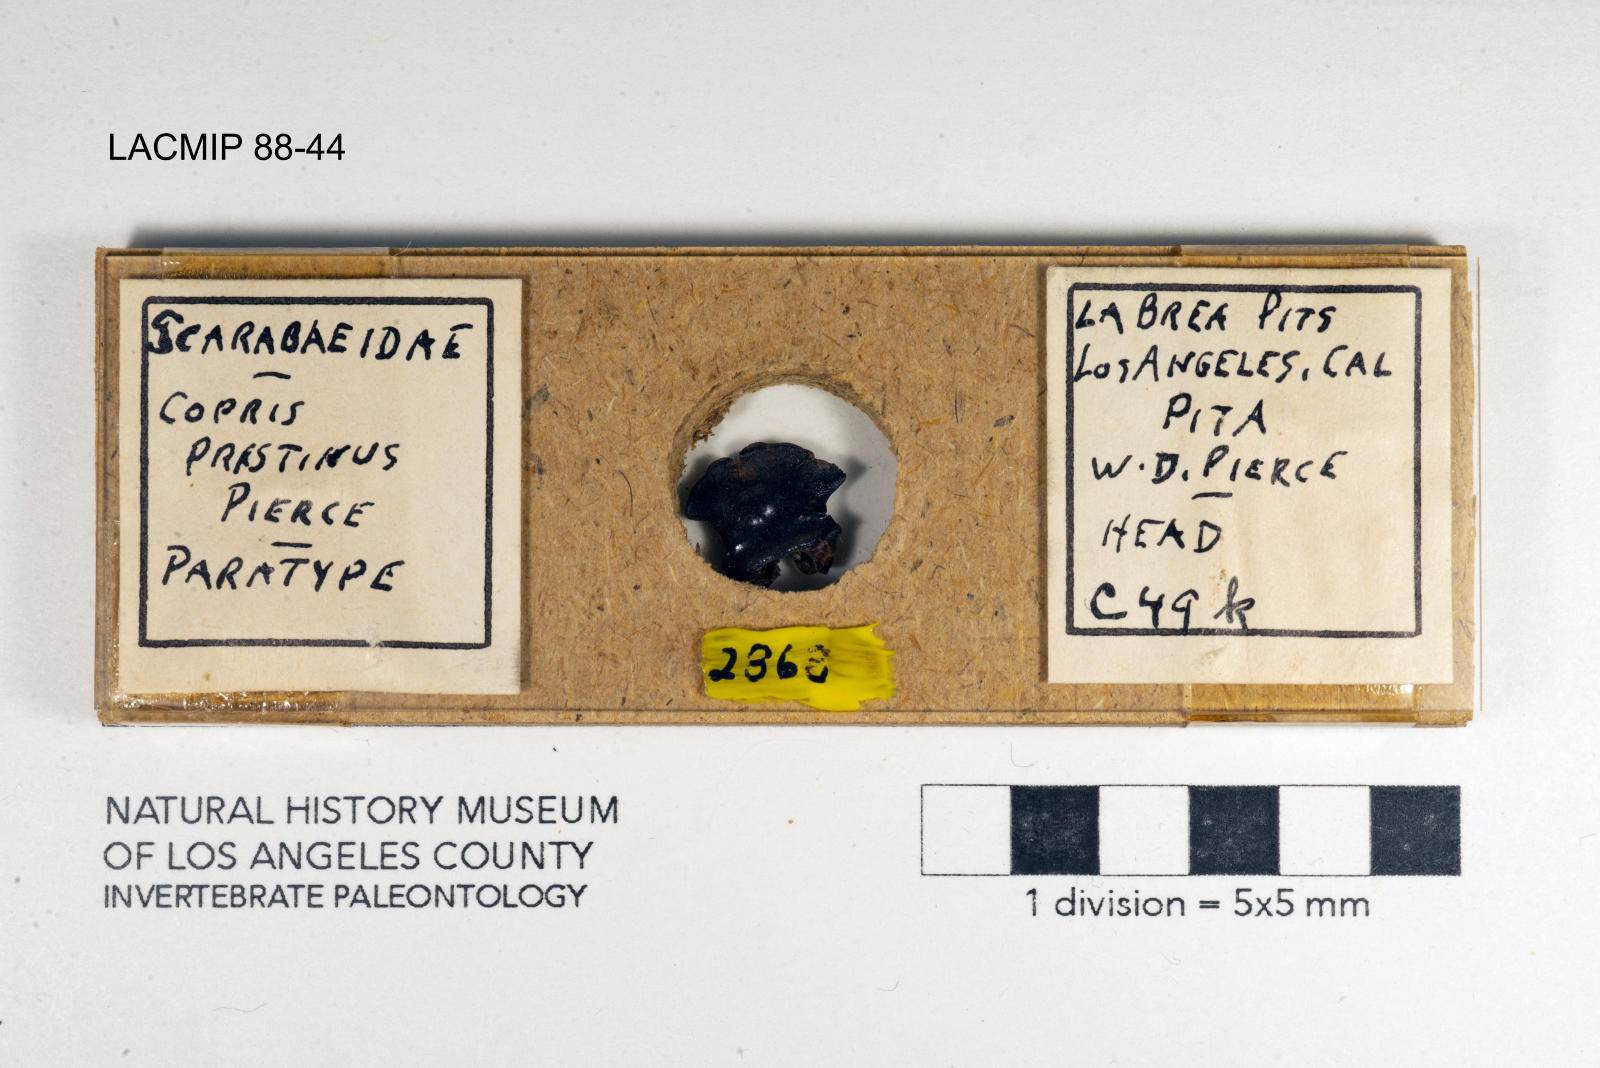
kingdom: Animalia
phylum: Arthropoda
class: Insecta
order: Coleoptera
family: Scarabaeidae
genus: Copris
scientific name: Copris pristinus
